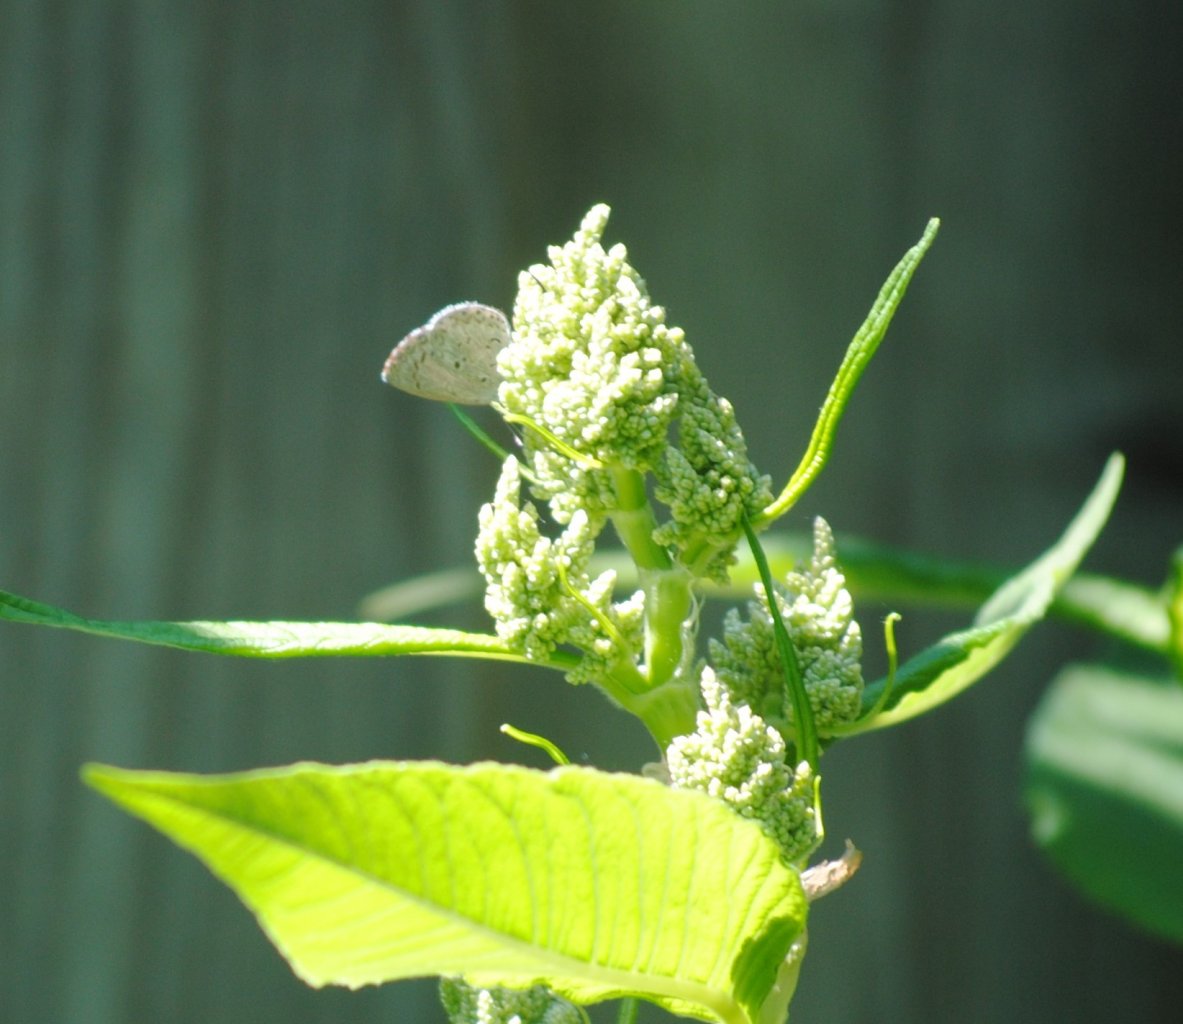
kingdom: Animalia
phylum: Arthropoda
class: Insecta
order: Lepidoptera
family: Lycaenidae
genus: Celastrina
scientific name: Celastrina
